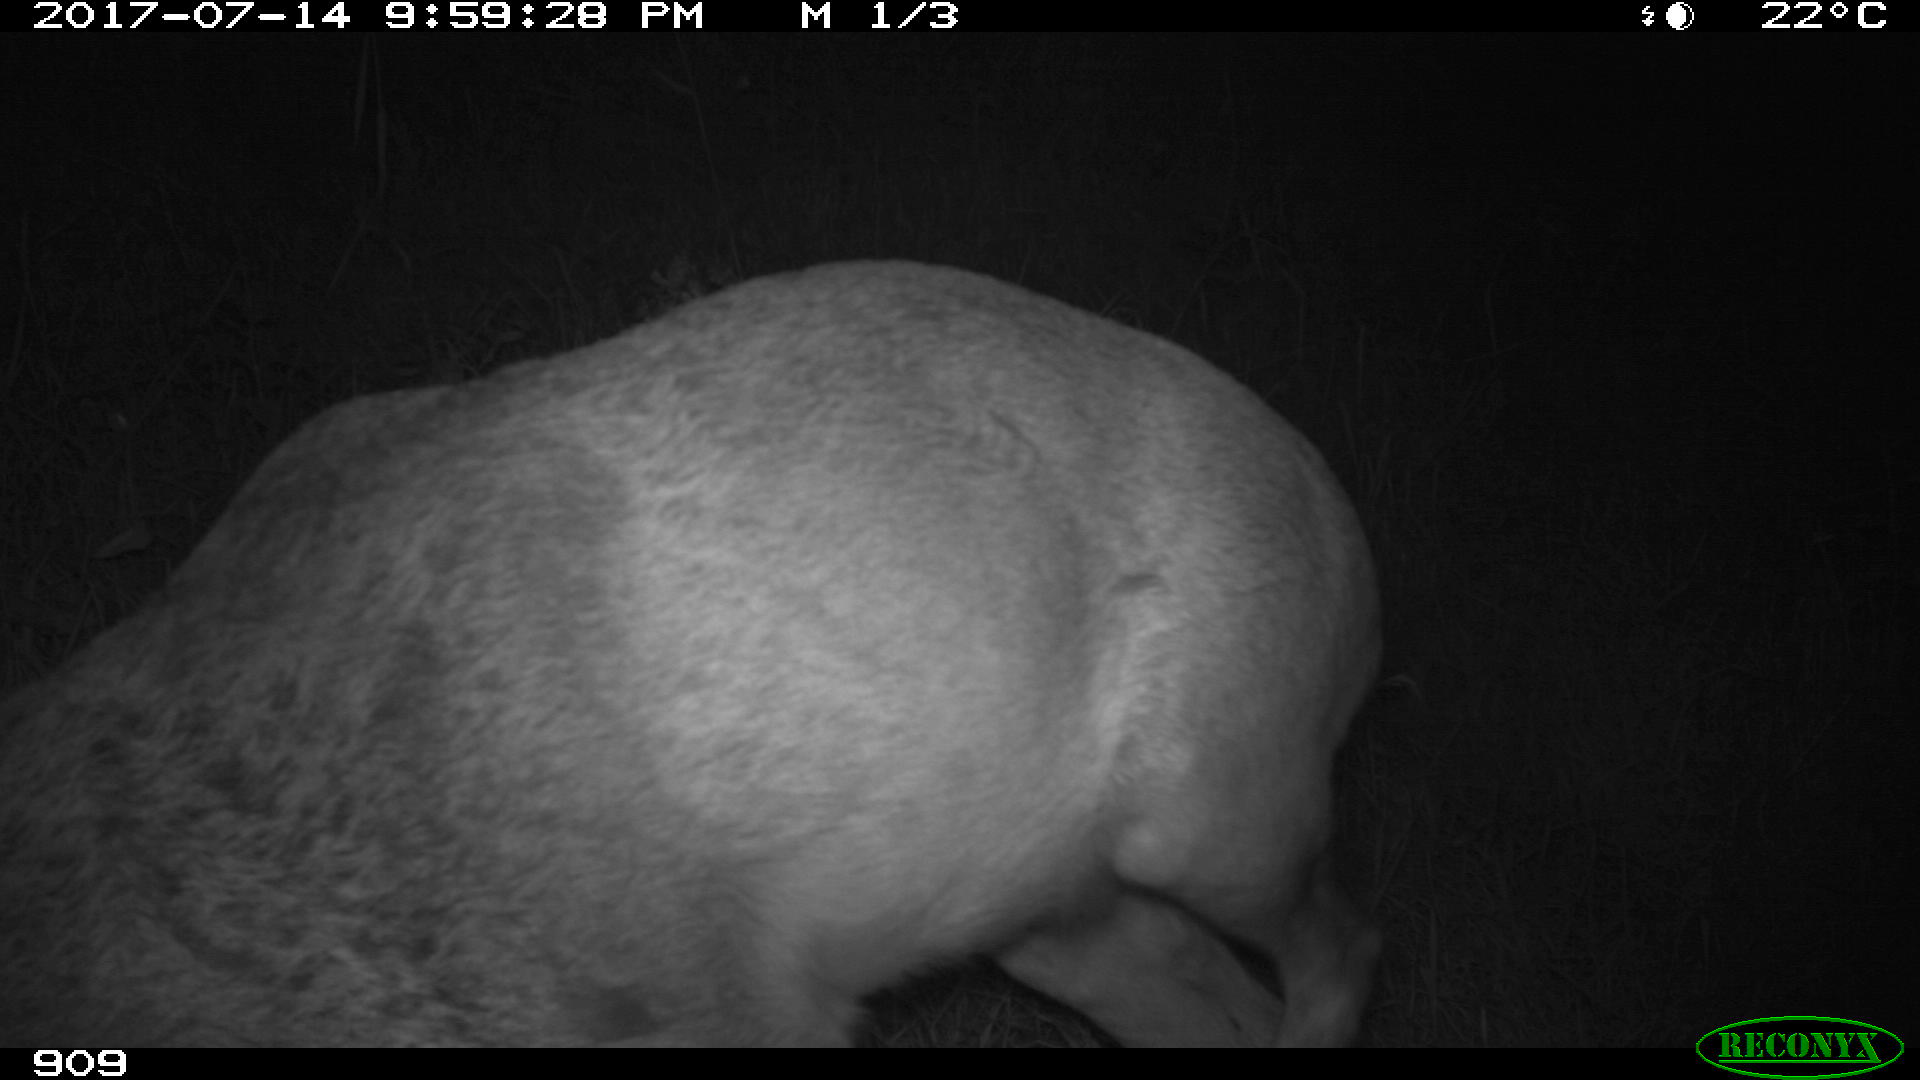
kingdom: Animalia
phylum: Chordata
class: Mammalia
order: Artiodactyla
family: Cervidae
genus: Capreolus
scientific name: Capreolus capreolus
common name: Western roe deer
